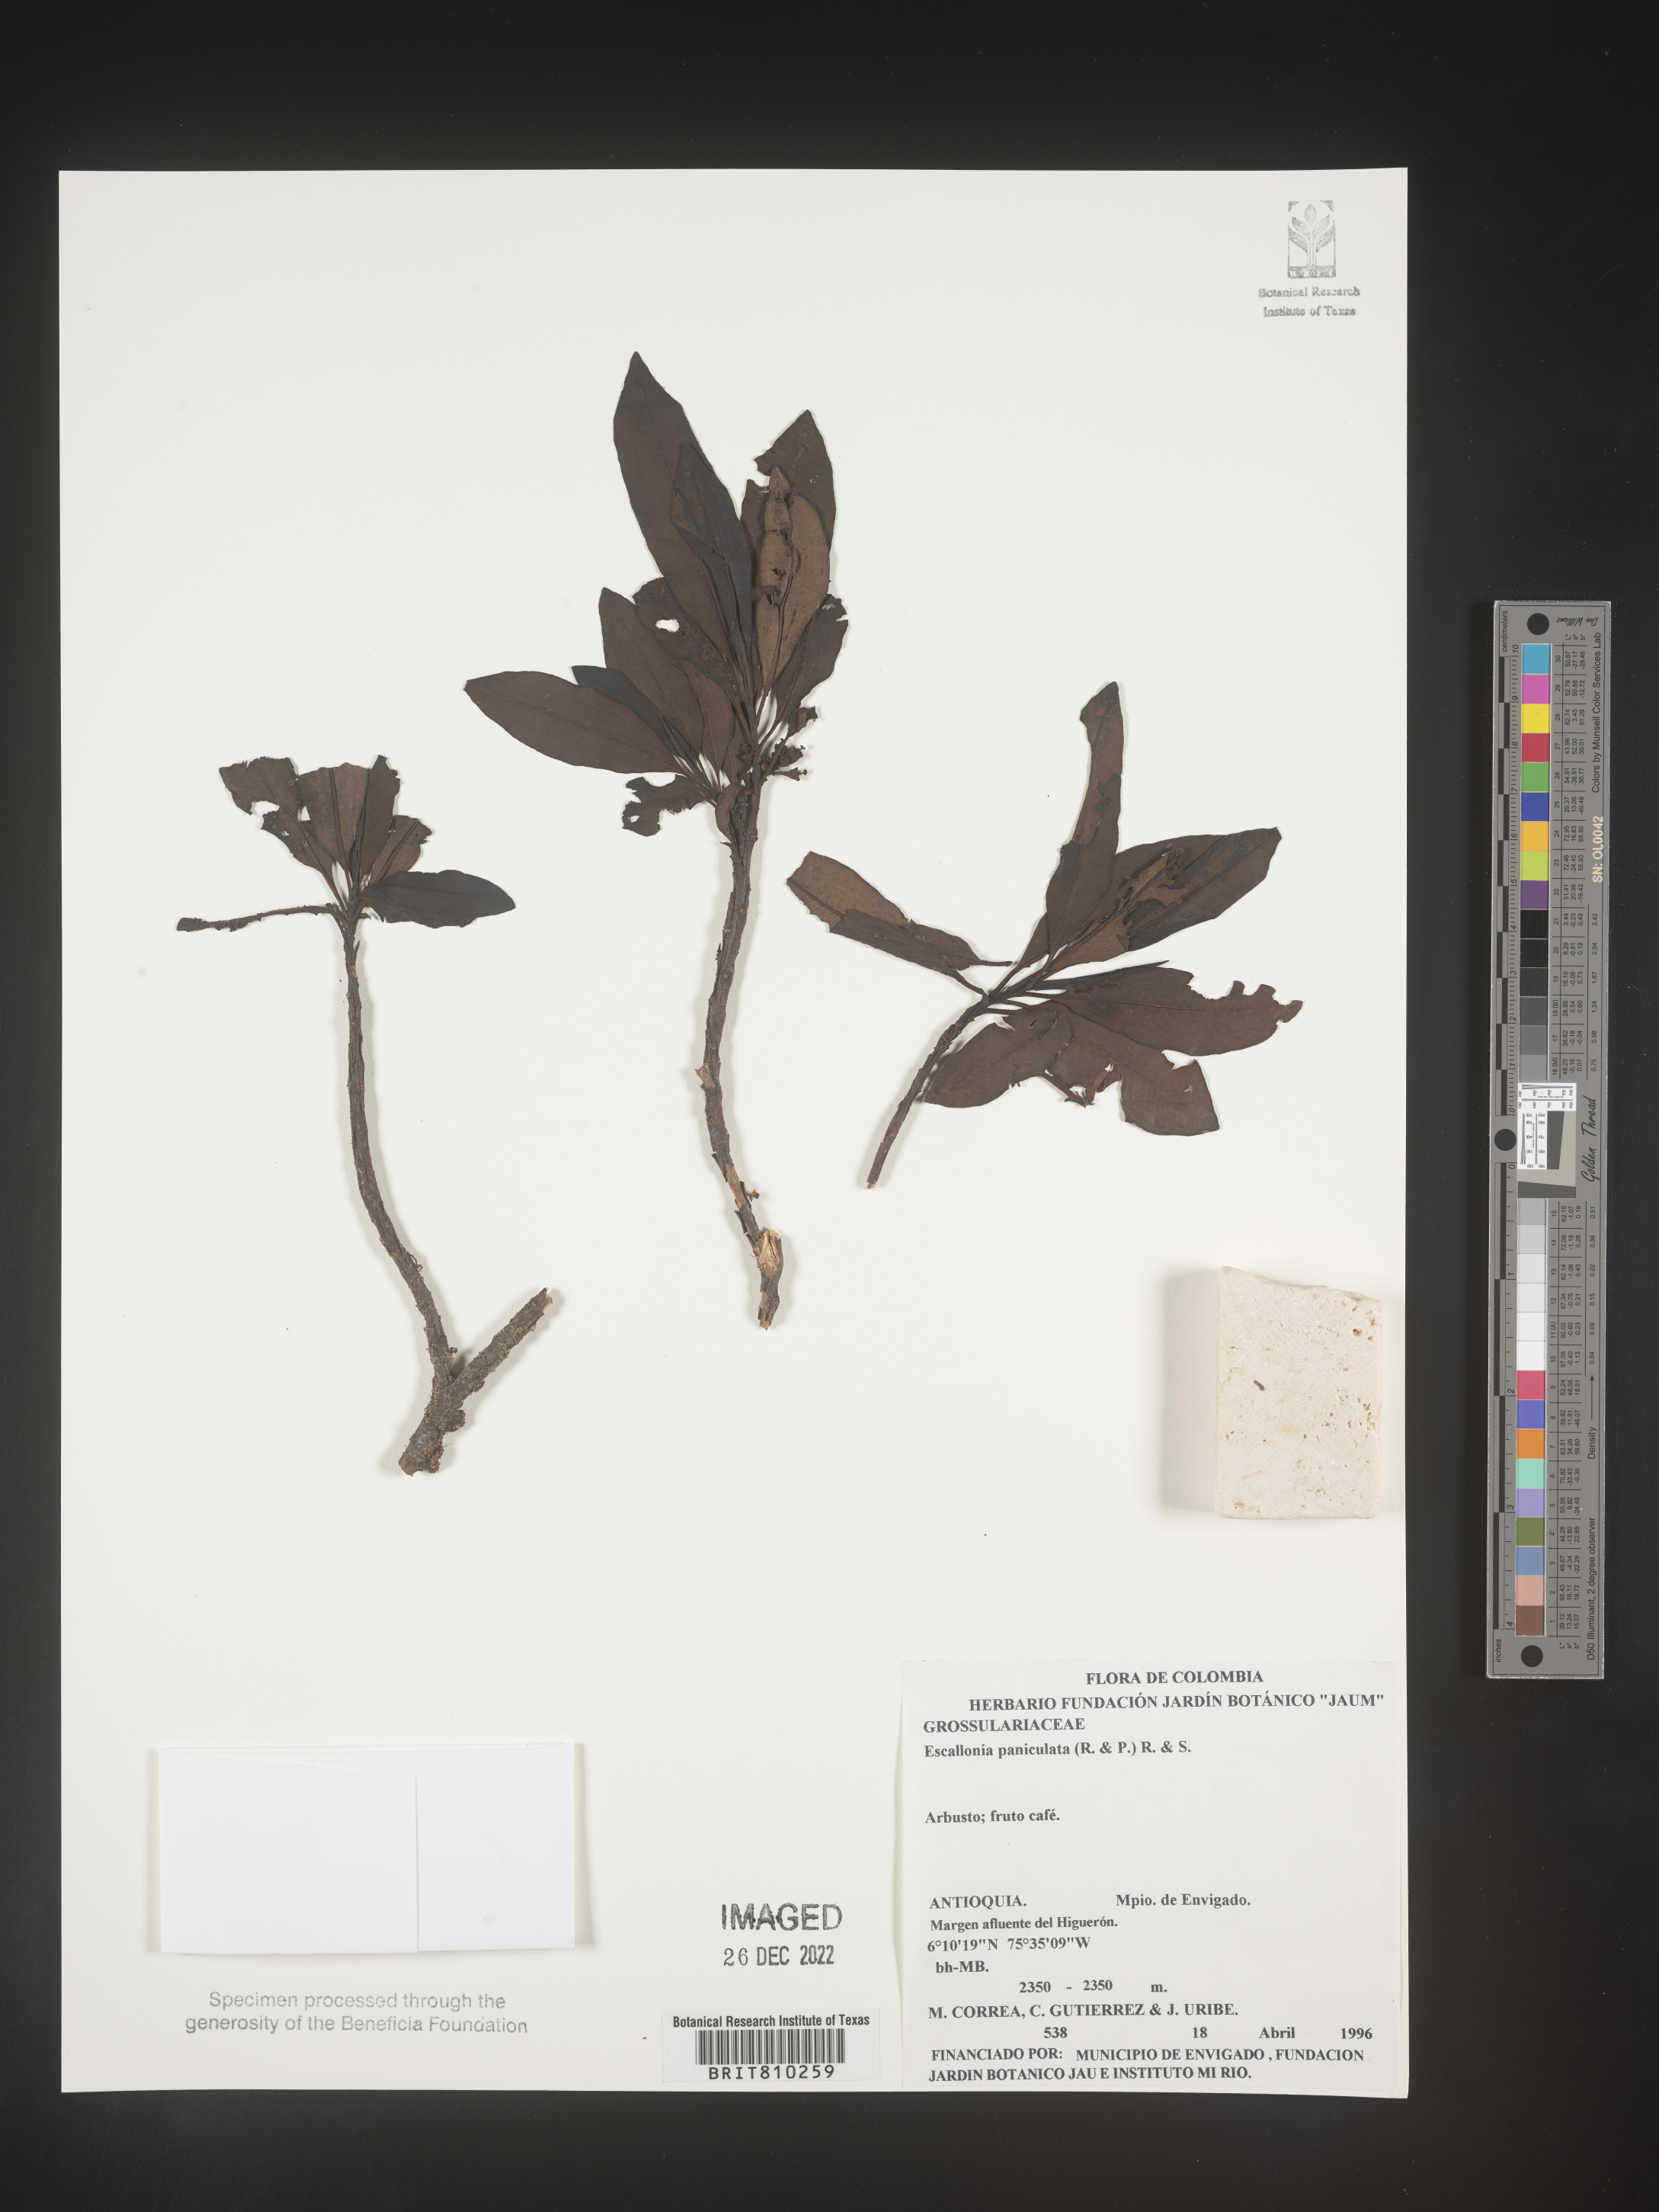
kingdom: Plantae
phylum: Tracheophyta
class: Magnoliopsida
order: Escalloniales
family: Escalloniaceae
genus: Escallonia
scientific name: Escallonia paniculata
